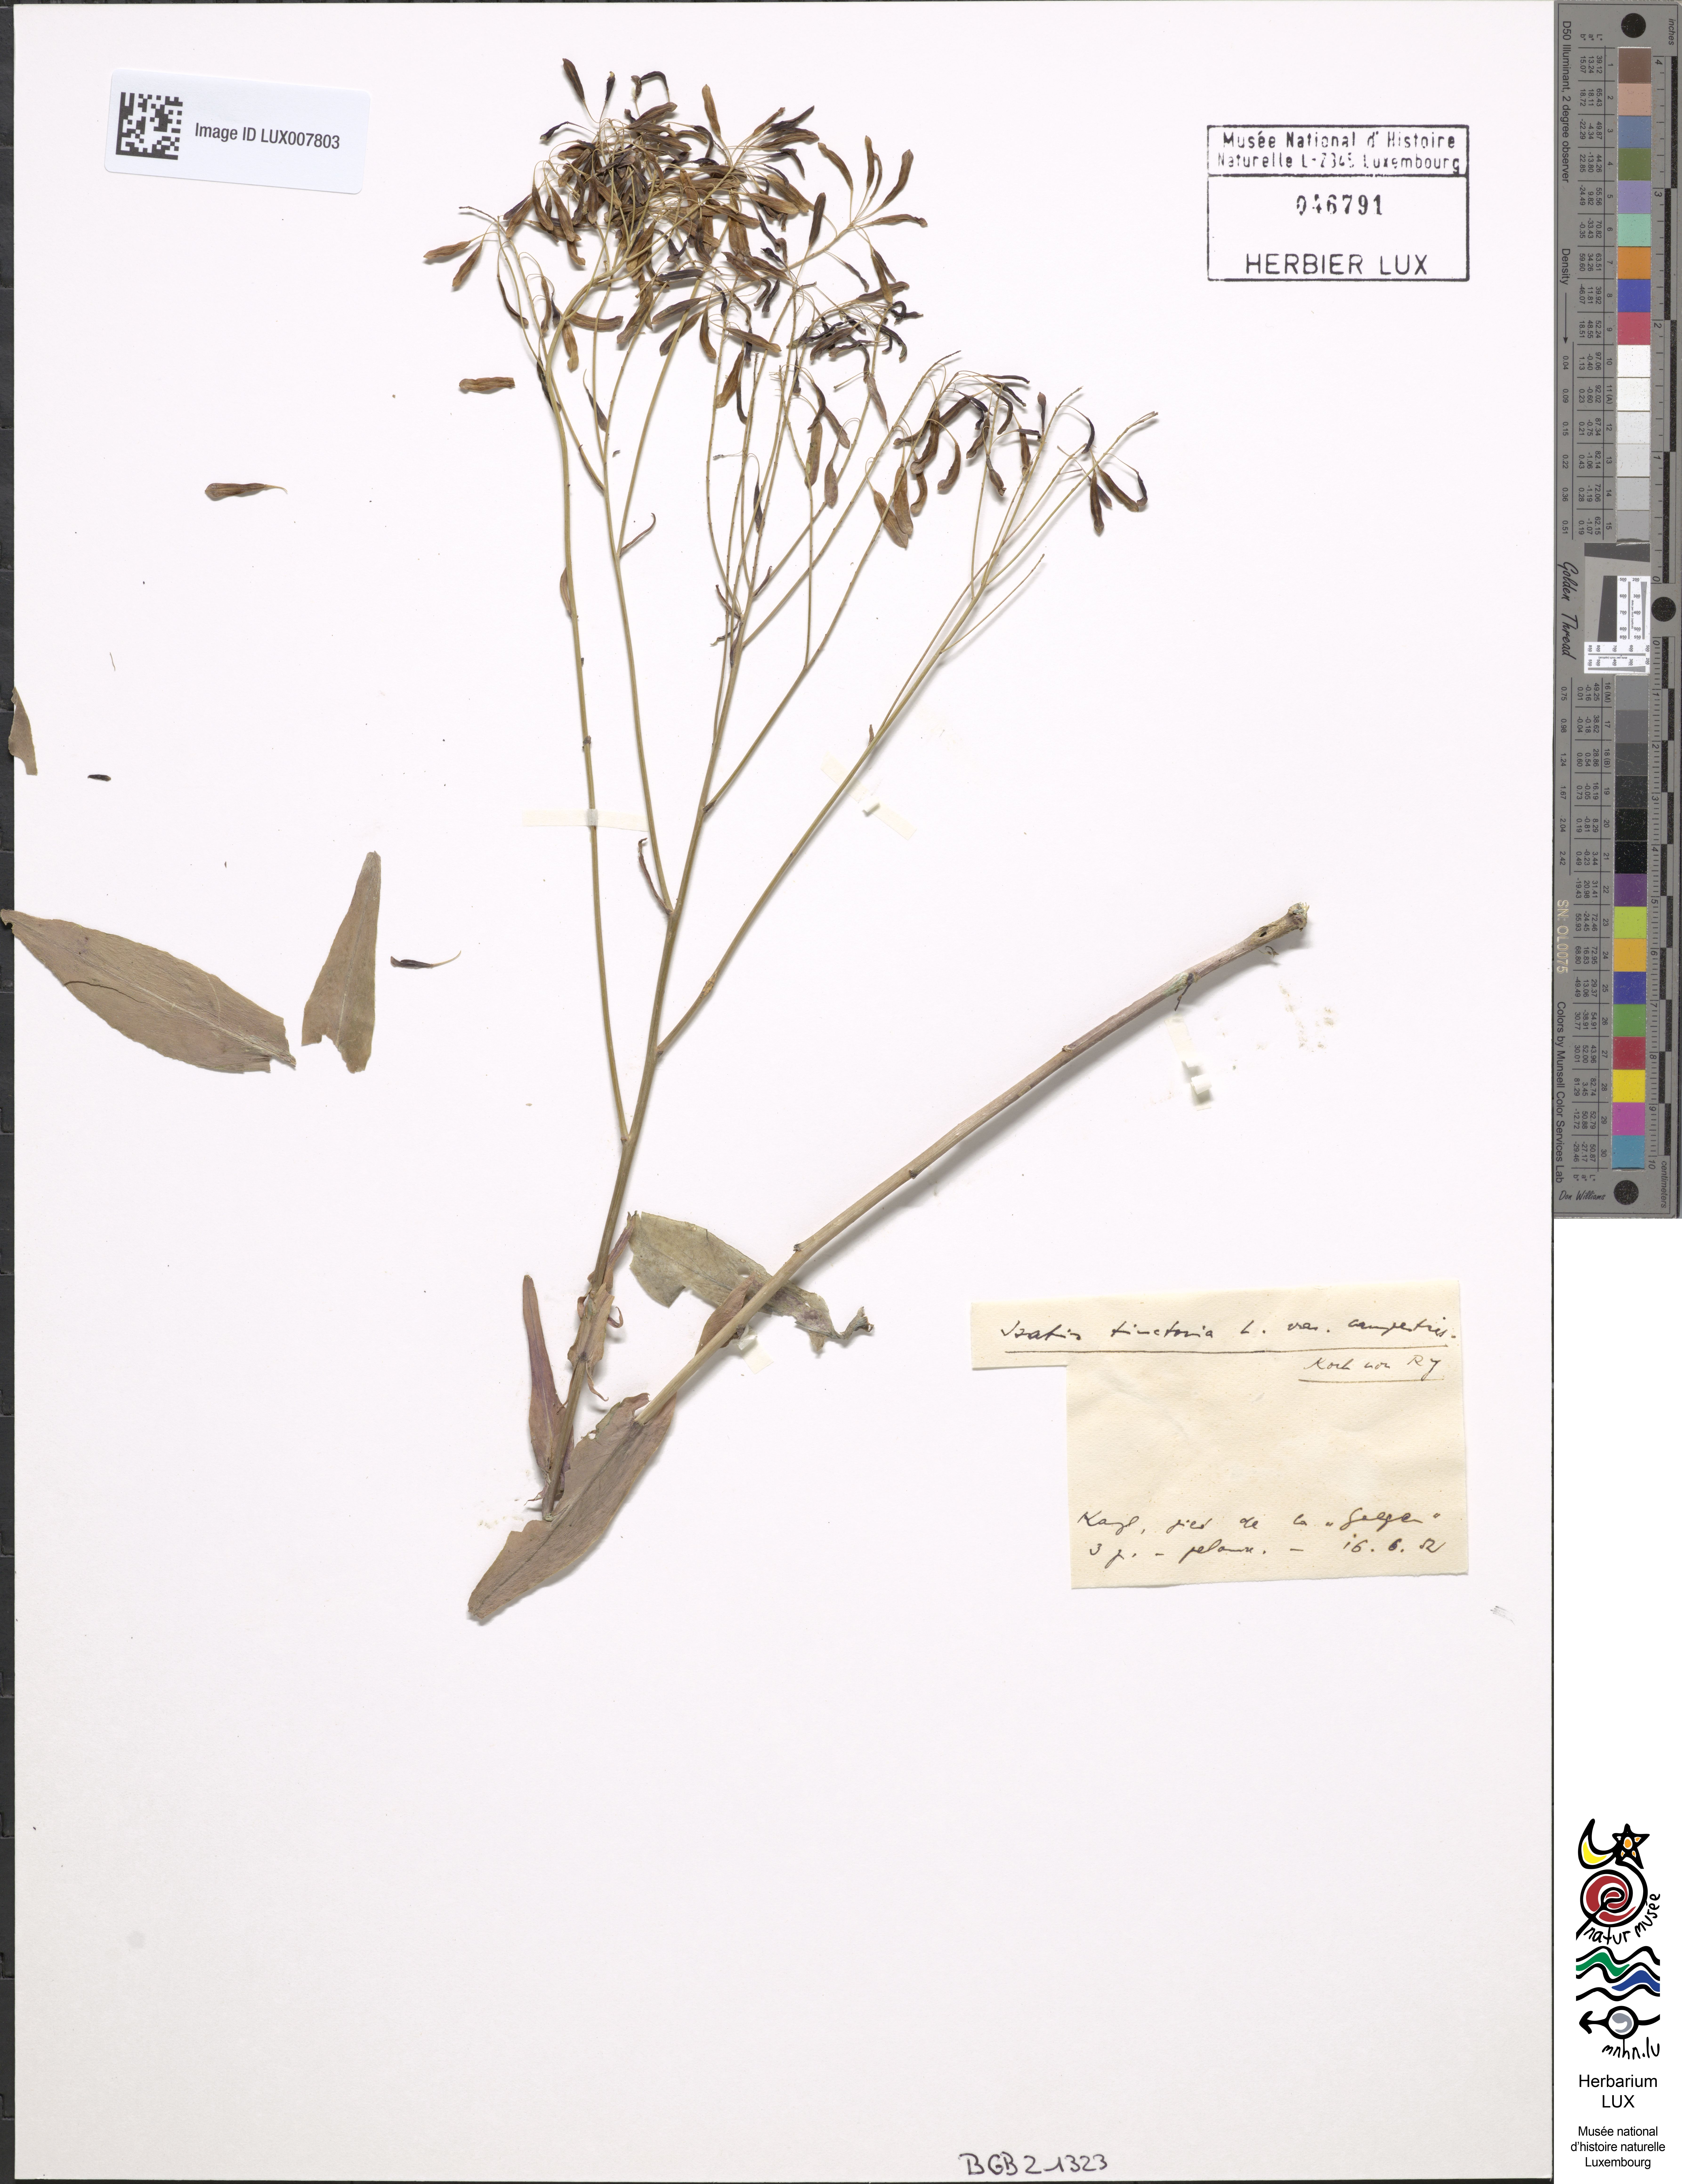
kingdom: Plantae
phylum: Tracheophyta
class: Magnoliopsida
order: Brassicales
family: Brassicaceae
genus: Isatis
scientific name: Isatis tinctoria
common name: Woad
